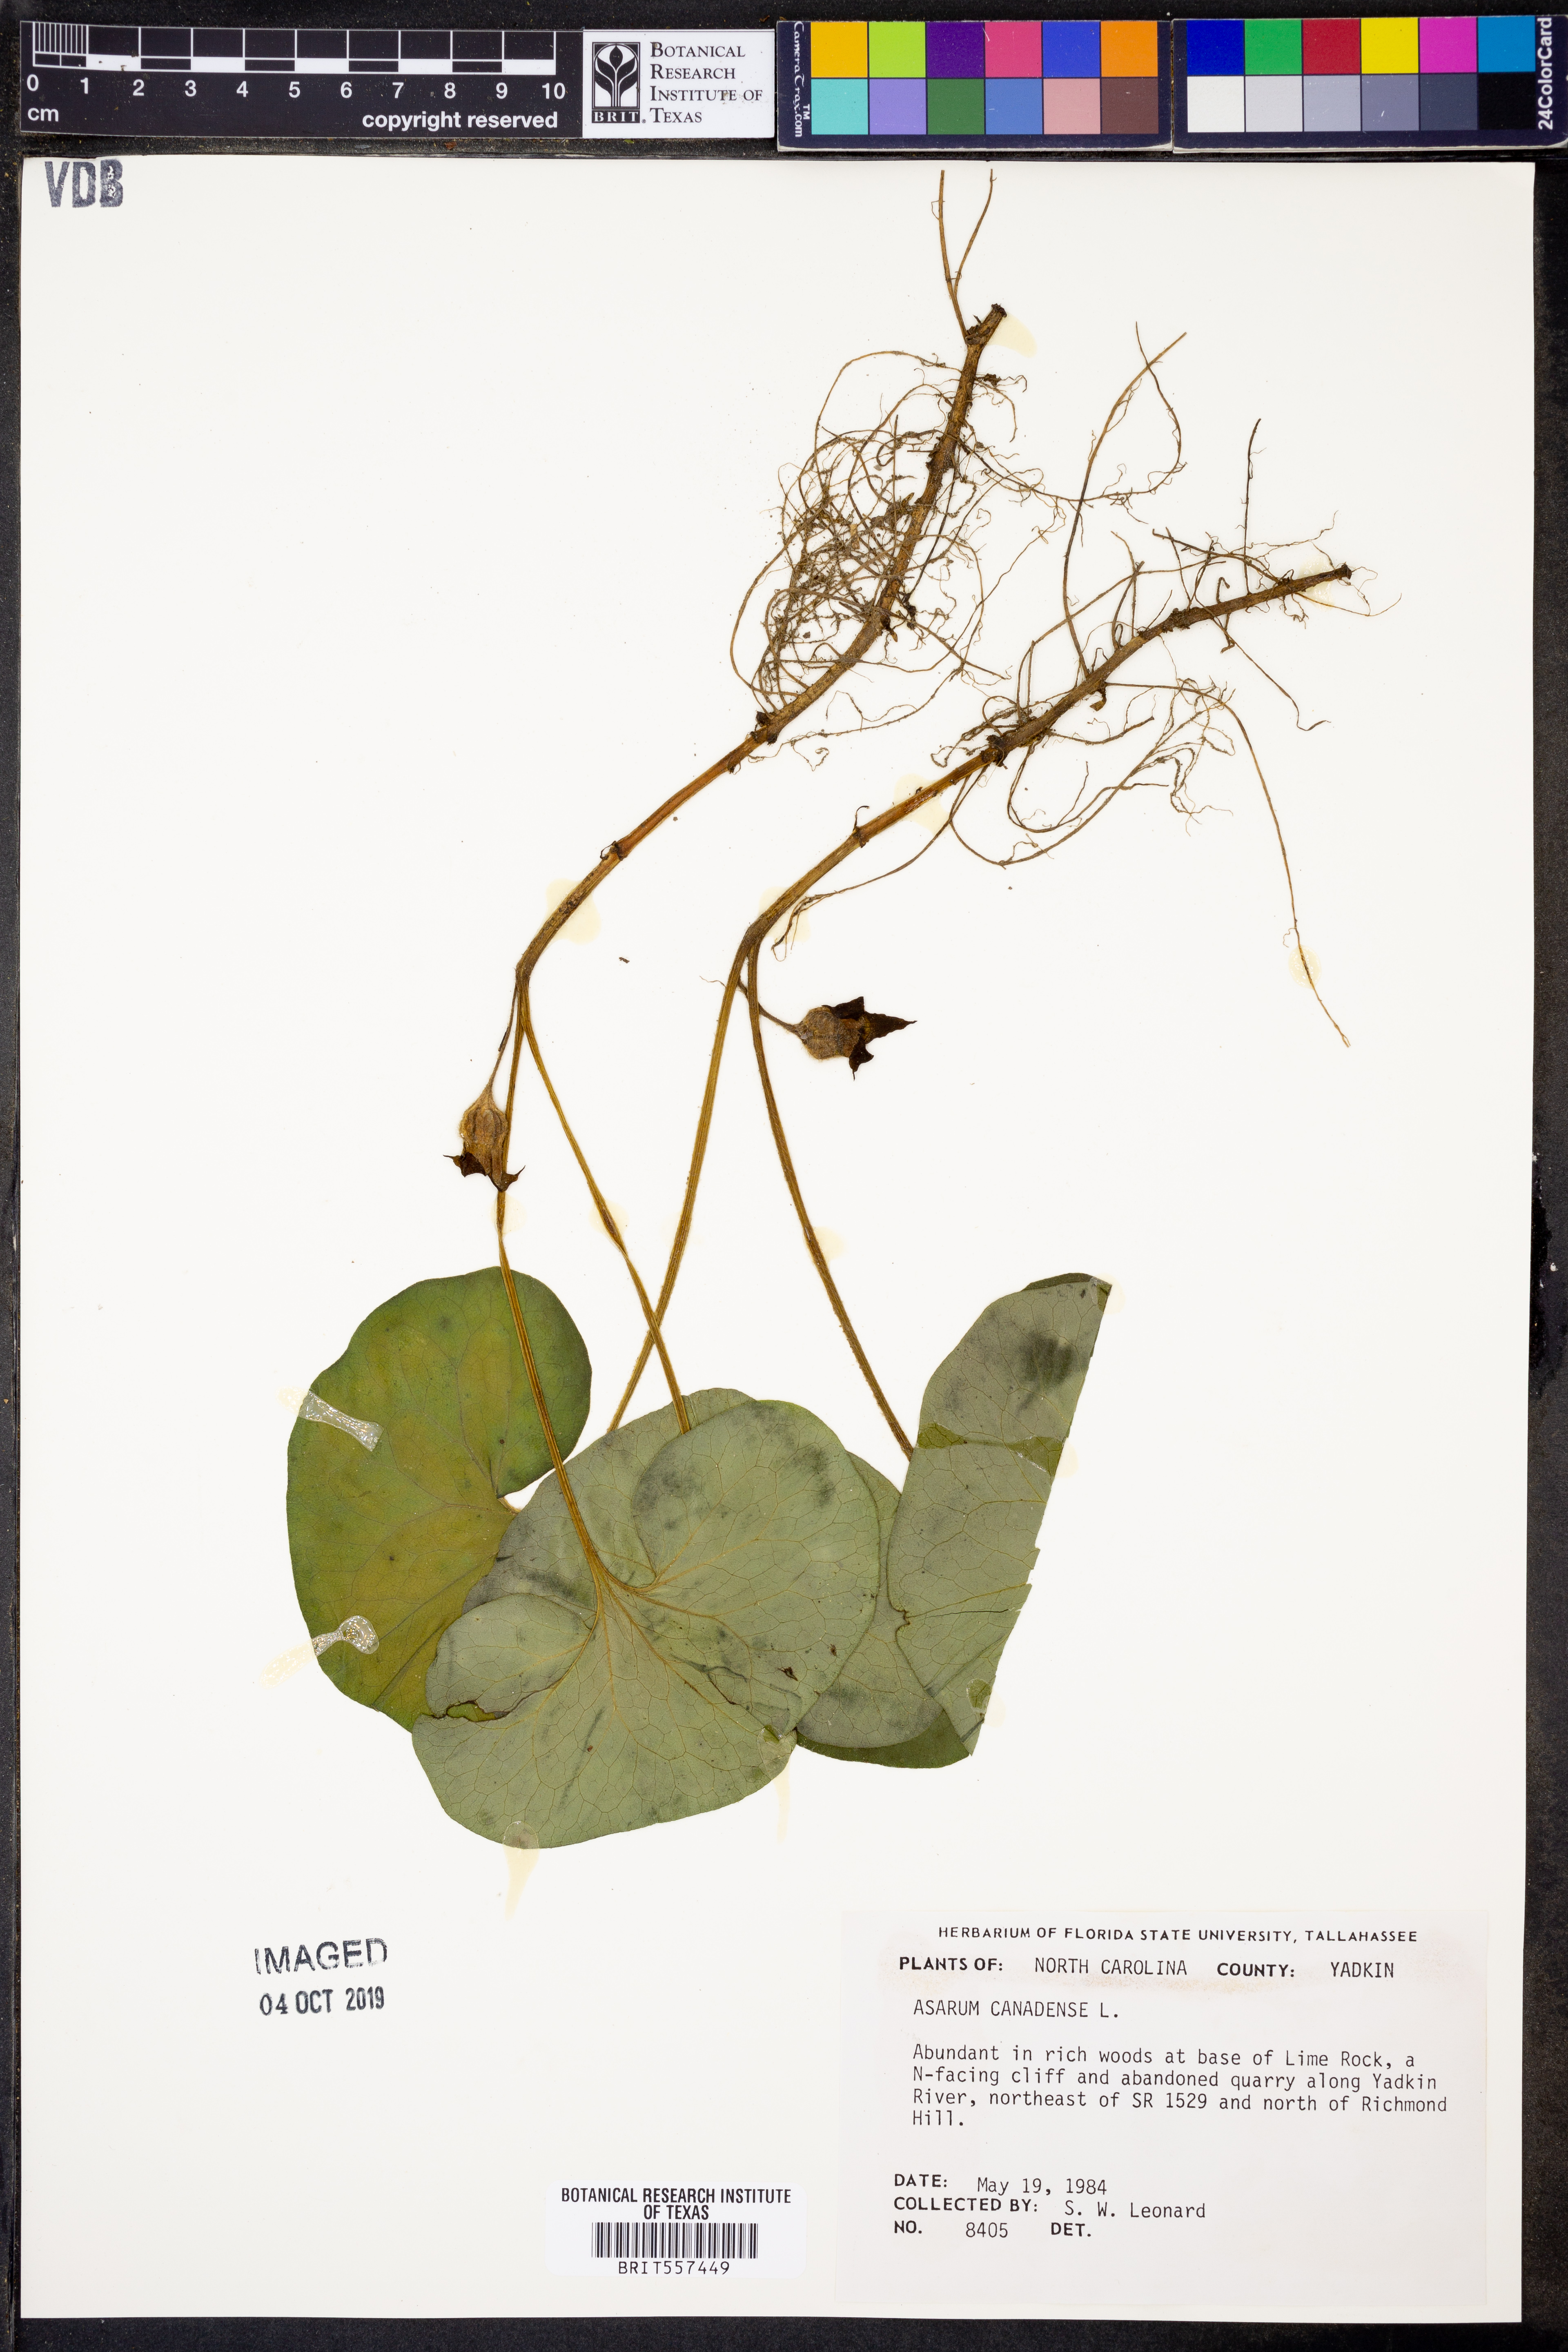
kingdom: Plantae
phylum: Tracheophyta
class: Magnoliopsida
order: Piperales
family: Aristolochiaceae
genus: Asarum
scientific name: Asarum canadense
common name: Wild ginger
